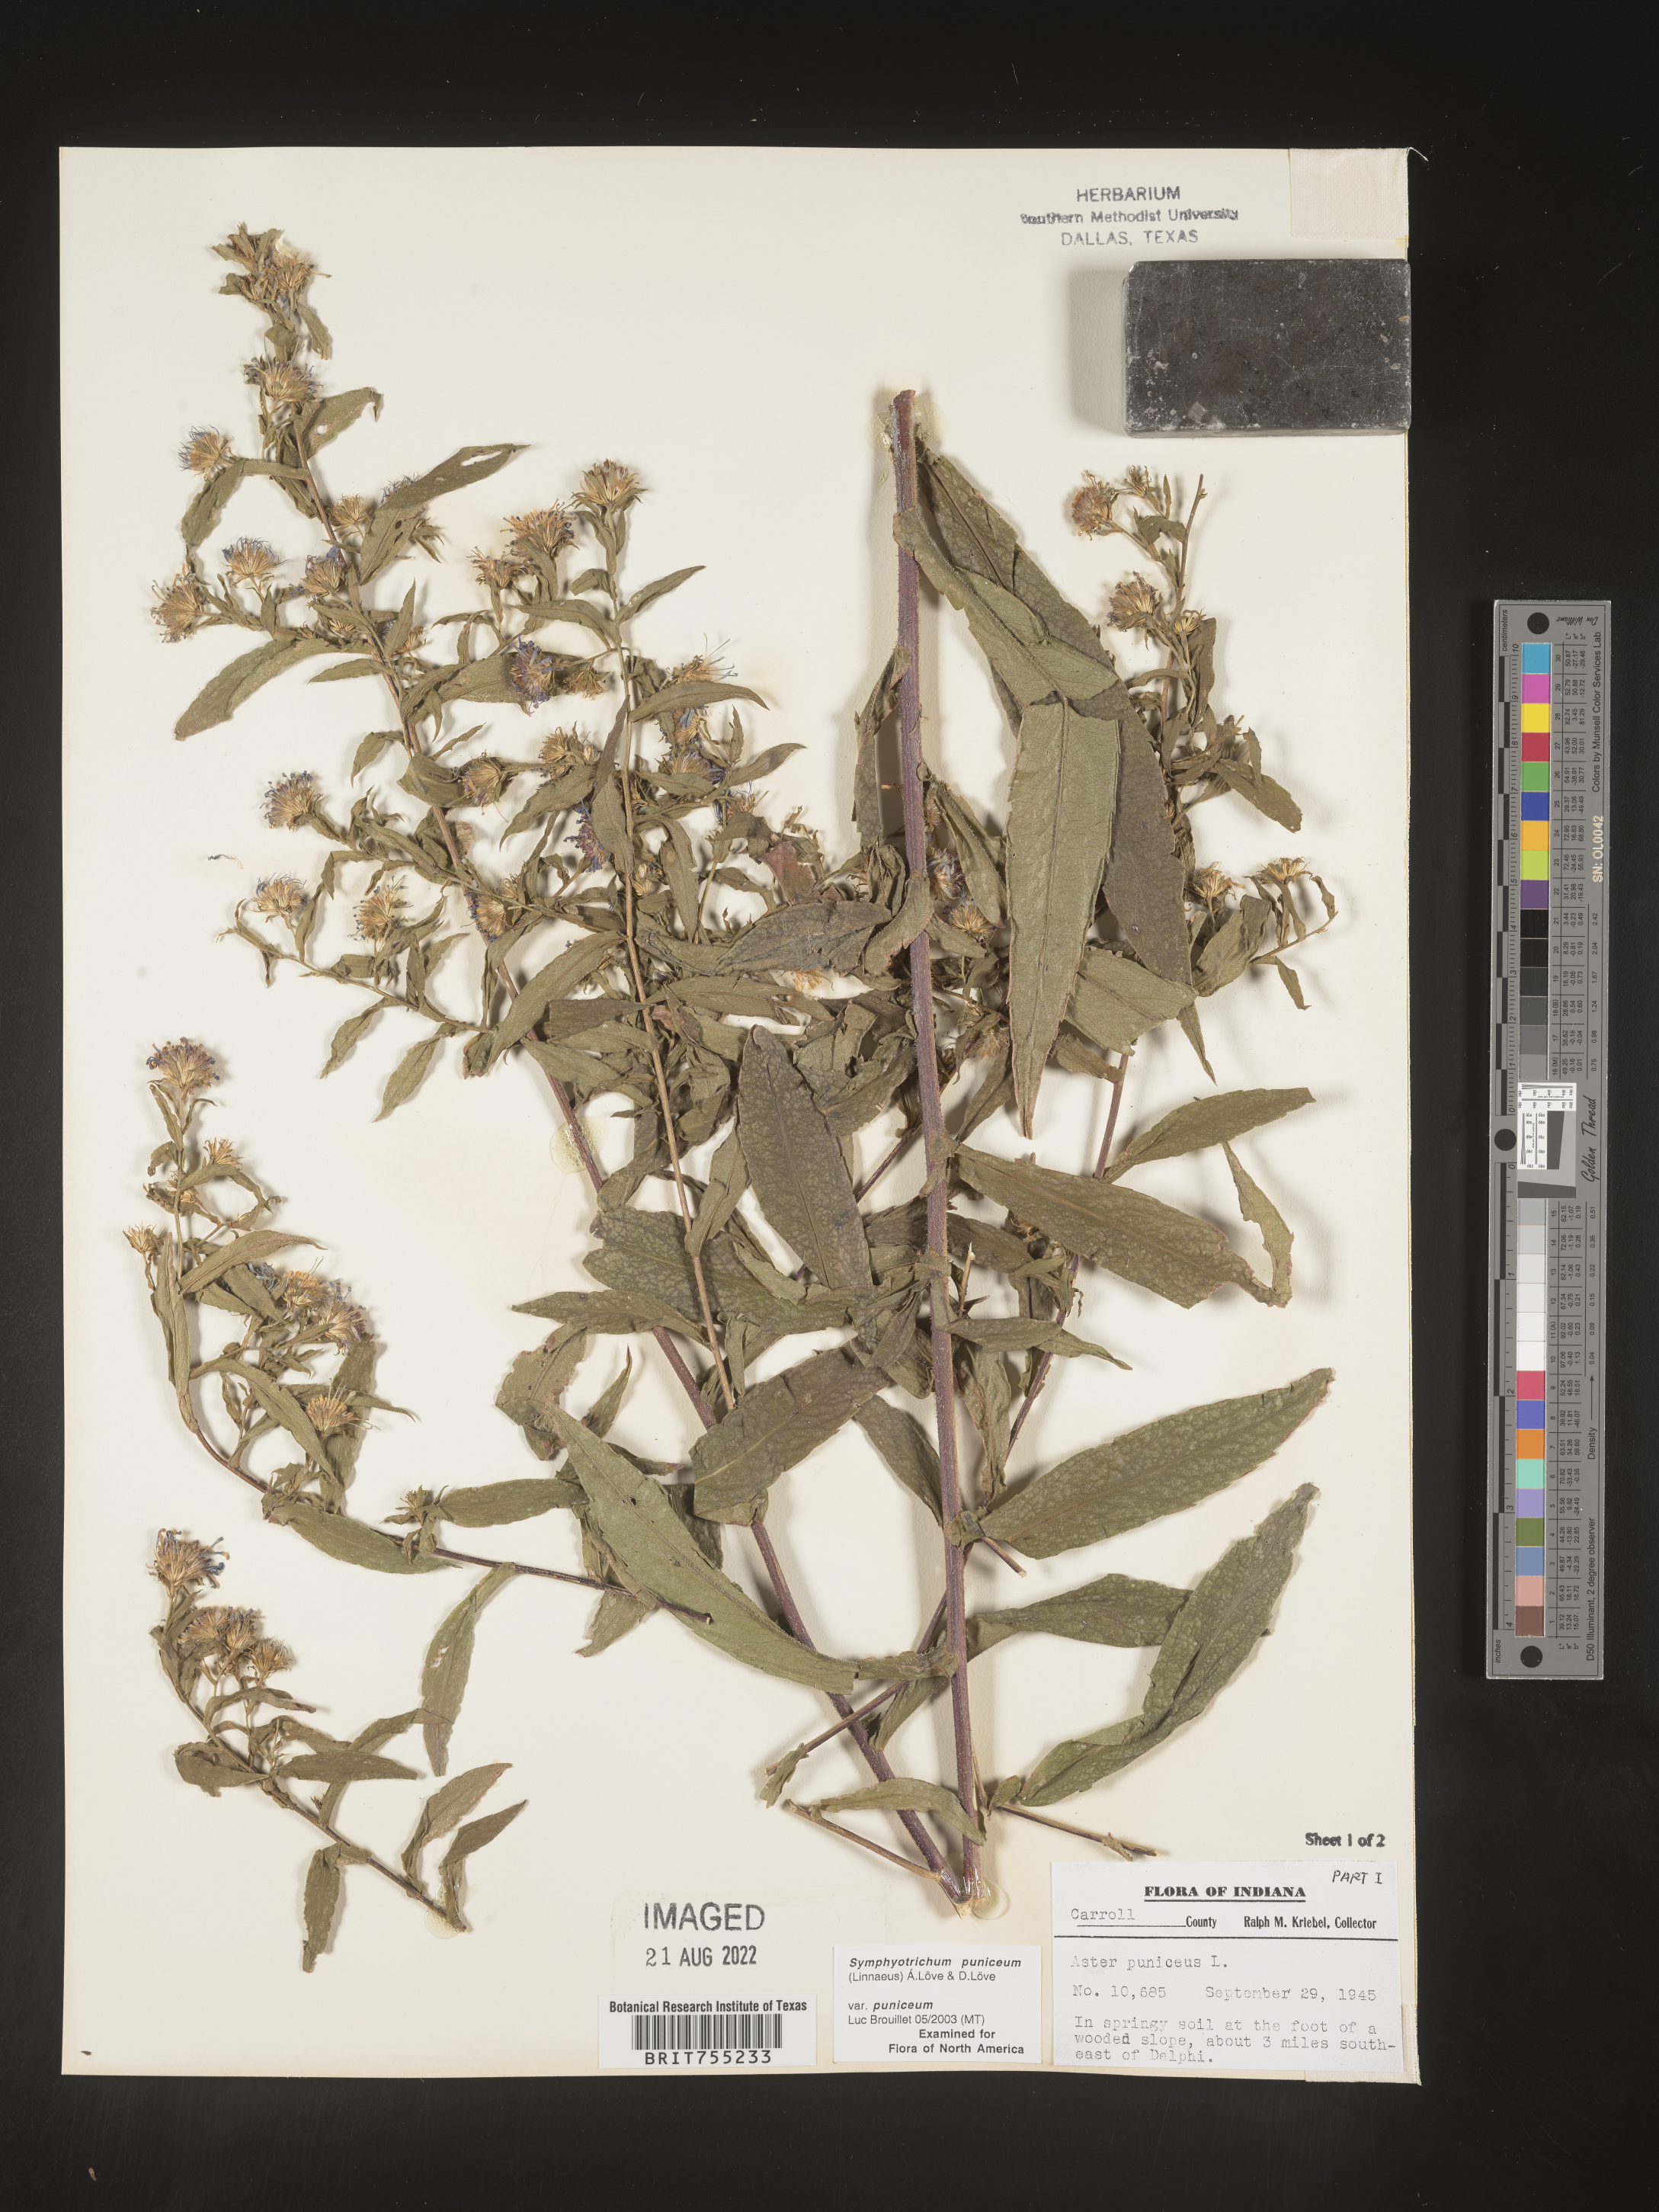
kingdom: Plantae
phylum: Tracheophyta
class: Magnoliopsida
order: Asterales
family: Asteraceae
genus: Symphyotrichum
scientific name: Symphyotrichum puniceum
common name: Bog aster
